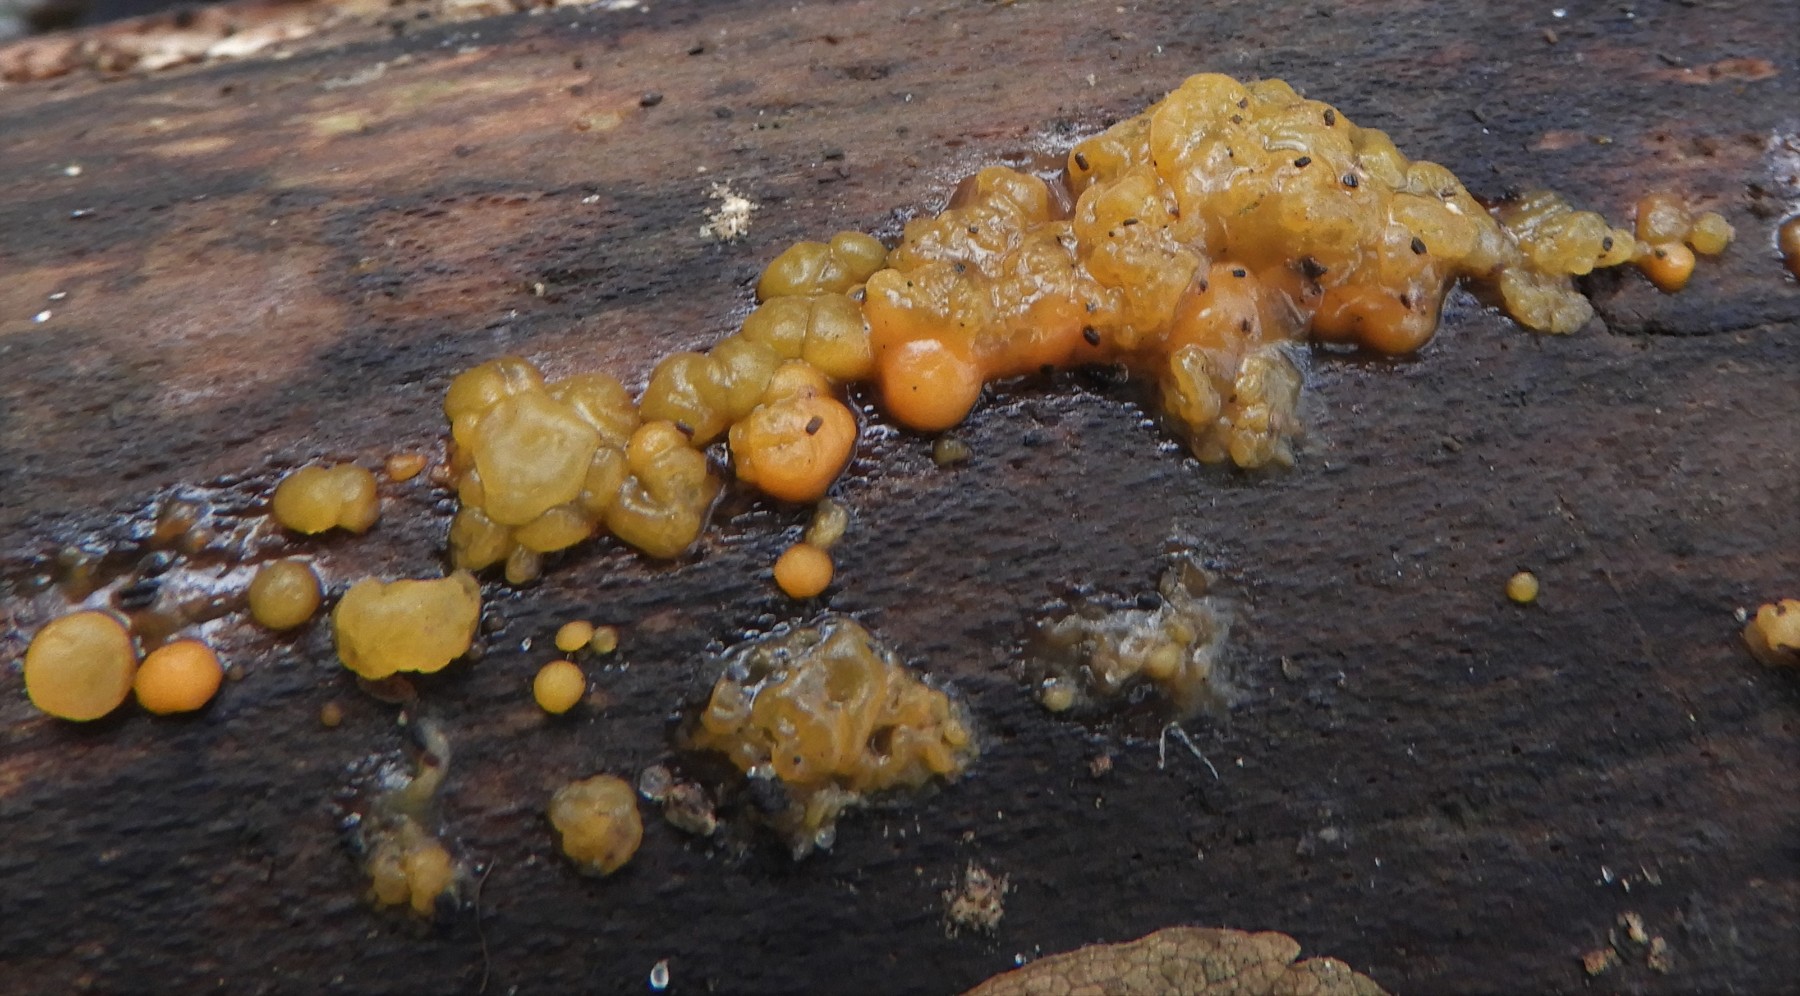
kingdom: Fungi
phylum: Basidiomycota
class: Dacrymycetes
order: Dacrymycetales
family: Dacrymycetaceae
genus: Dacrymyces
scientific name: Dacrymyces lacrymalis
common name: rynket tåresvamp
